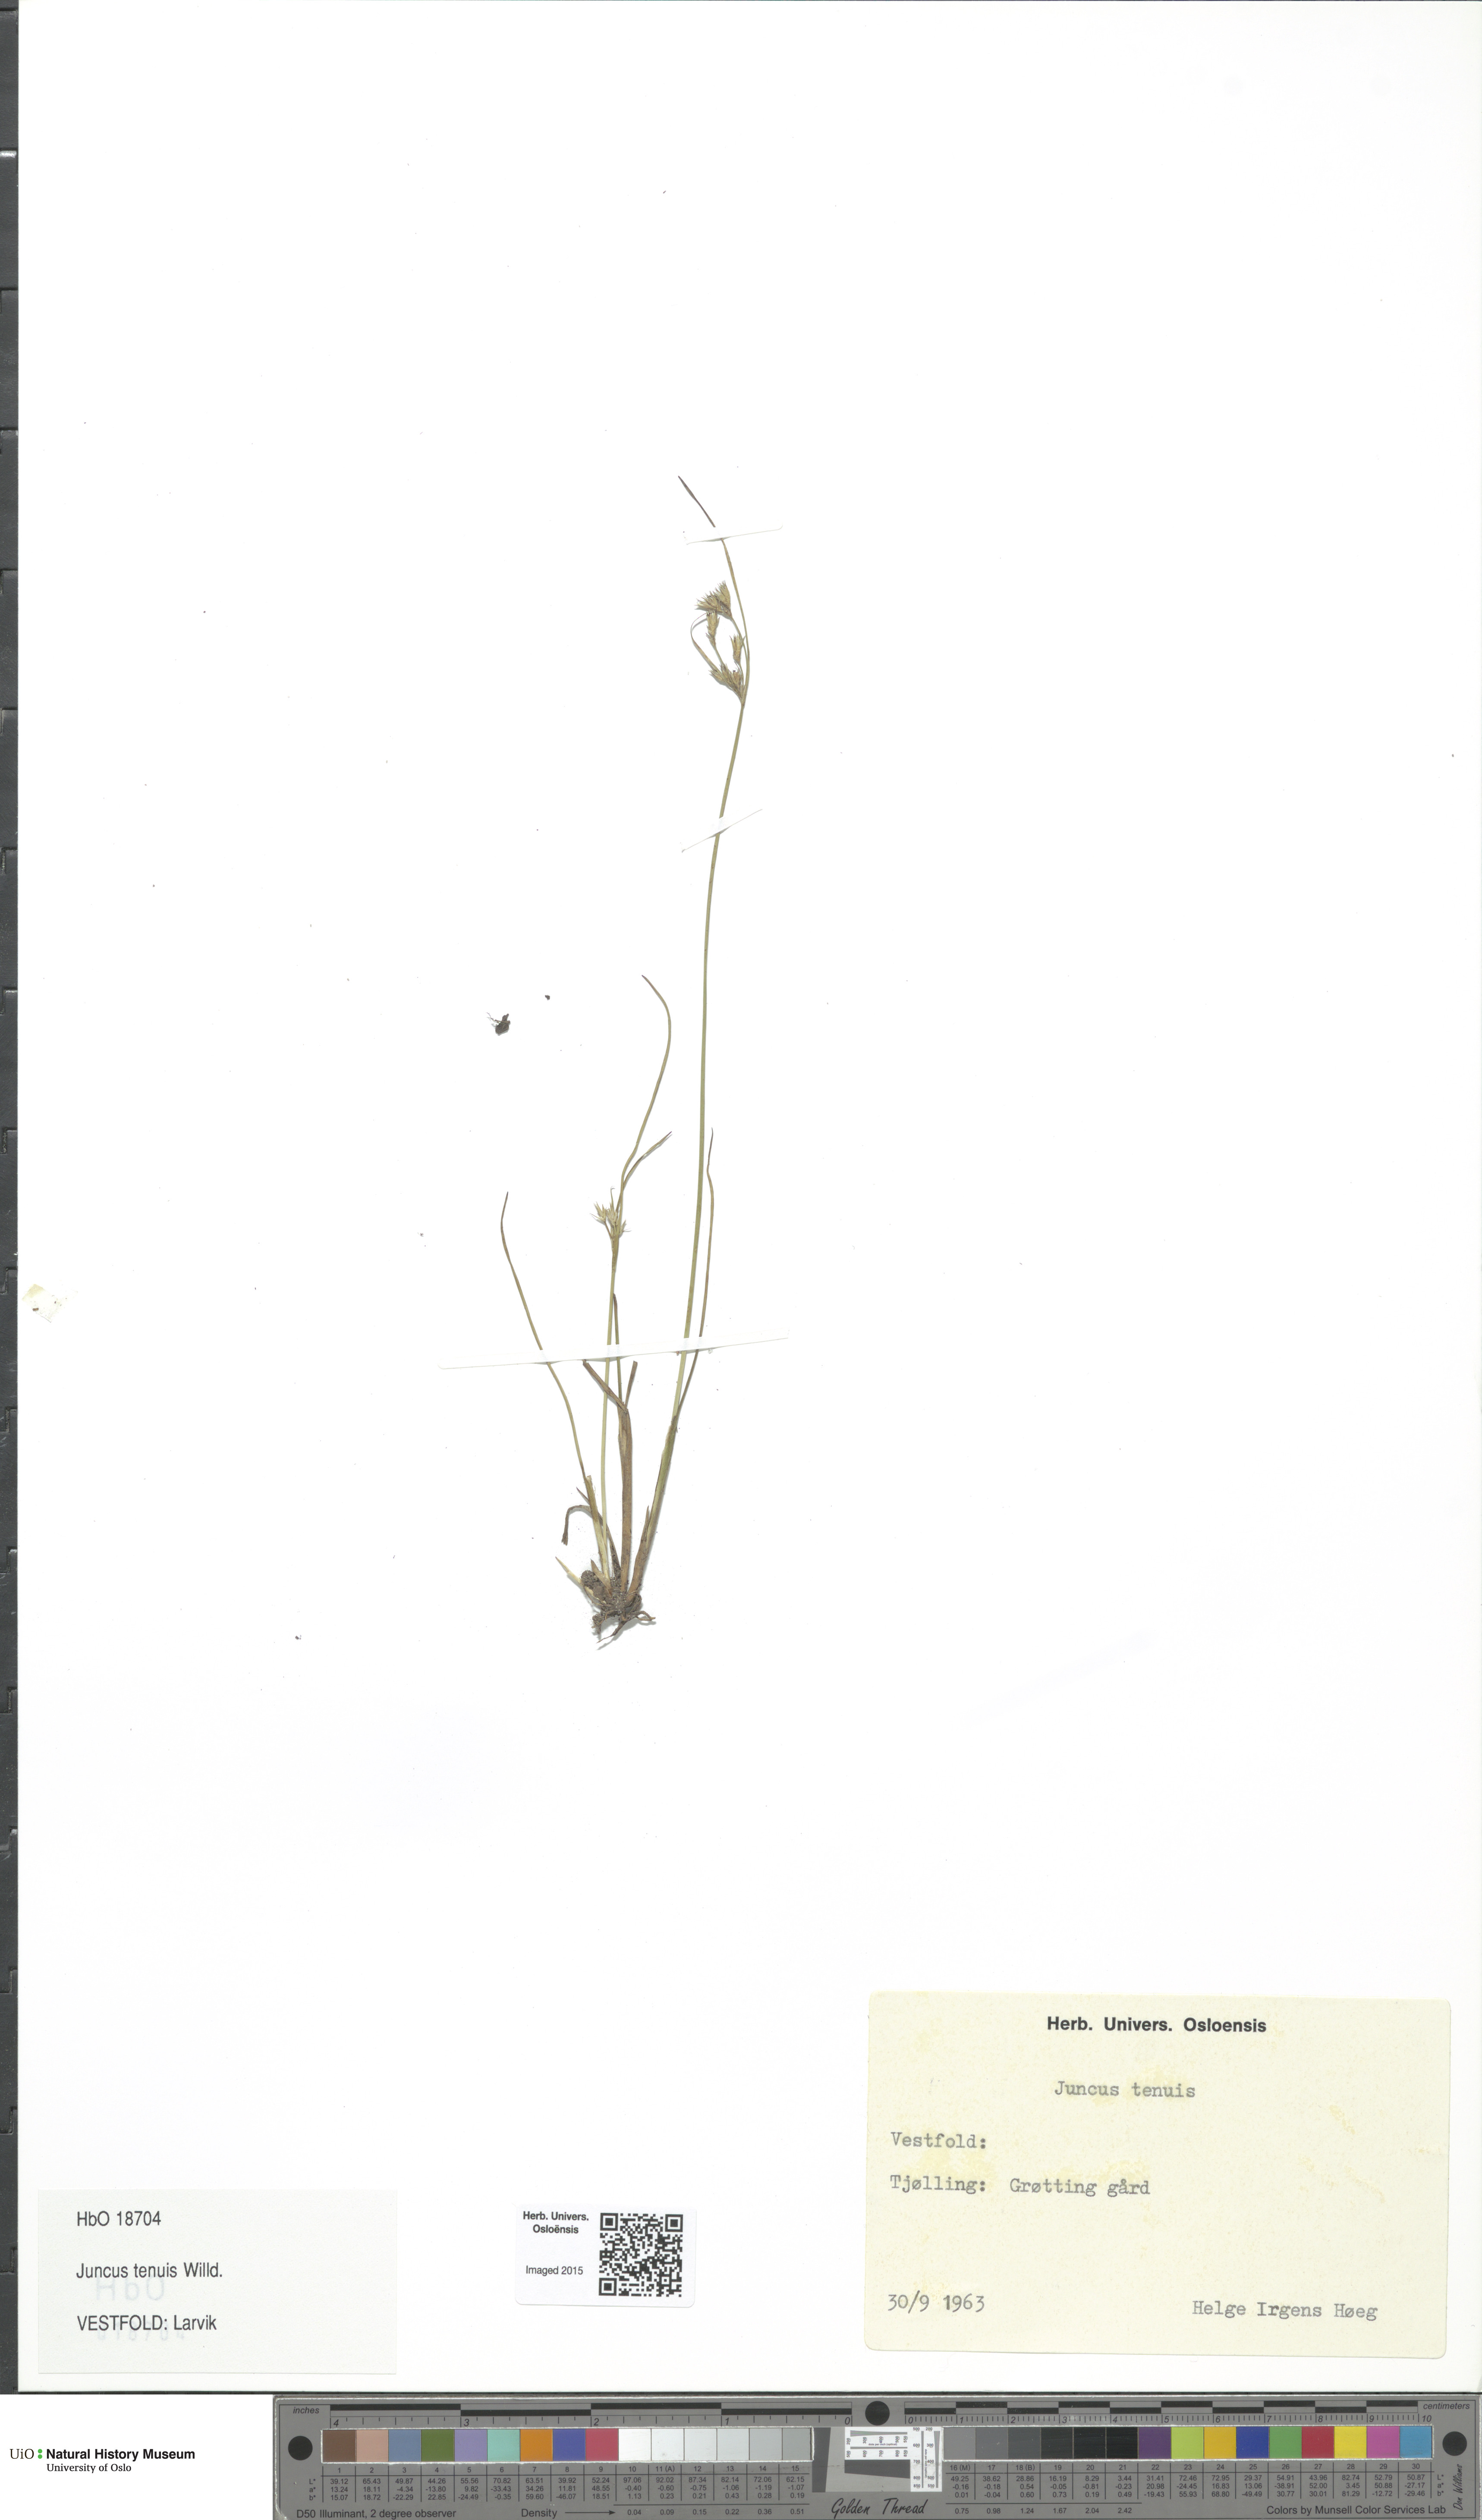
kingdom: Plantae
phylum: Tracheophyta
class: Liliopsida
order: Poales
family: Juncaceae
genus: Juncus
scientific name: Juncus tenuis
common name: Slender rush
